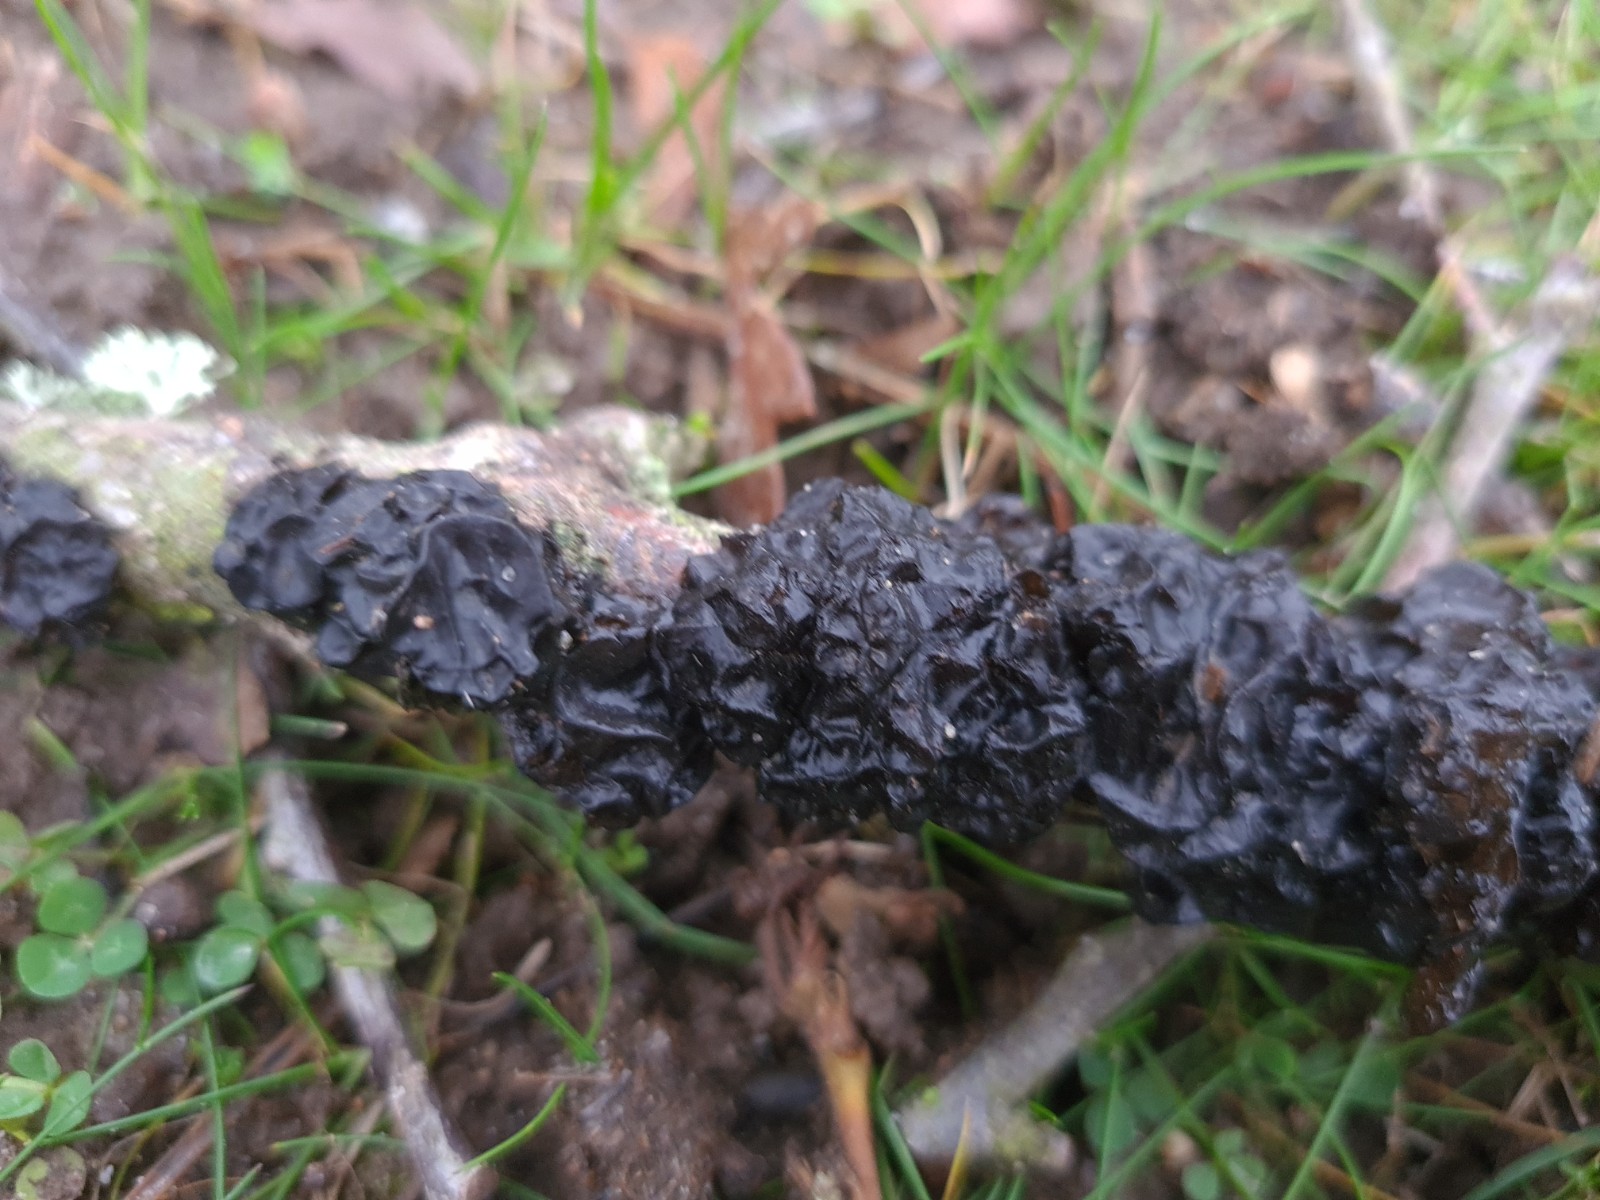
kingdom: Fungi
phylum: Basidiomycota
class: Agaricomycetes
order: Auriculariales
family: Auriculariaceae
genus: Exidia
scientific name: Exidia nigricans
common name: almindelig bævretop
